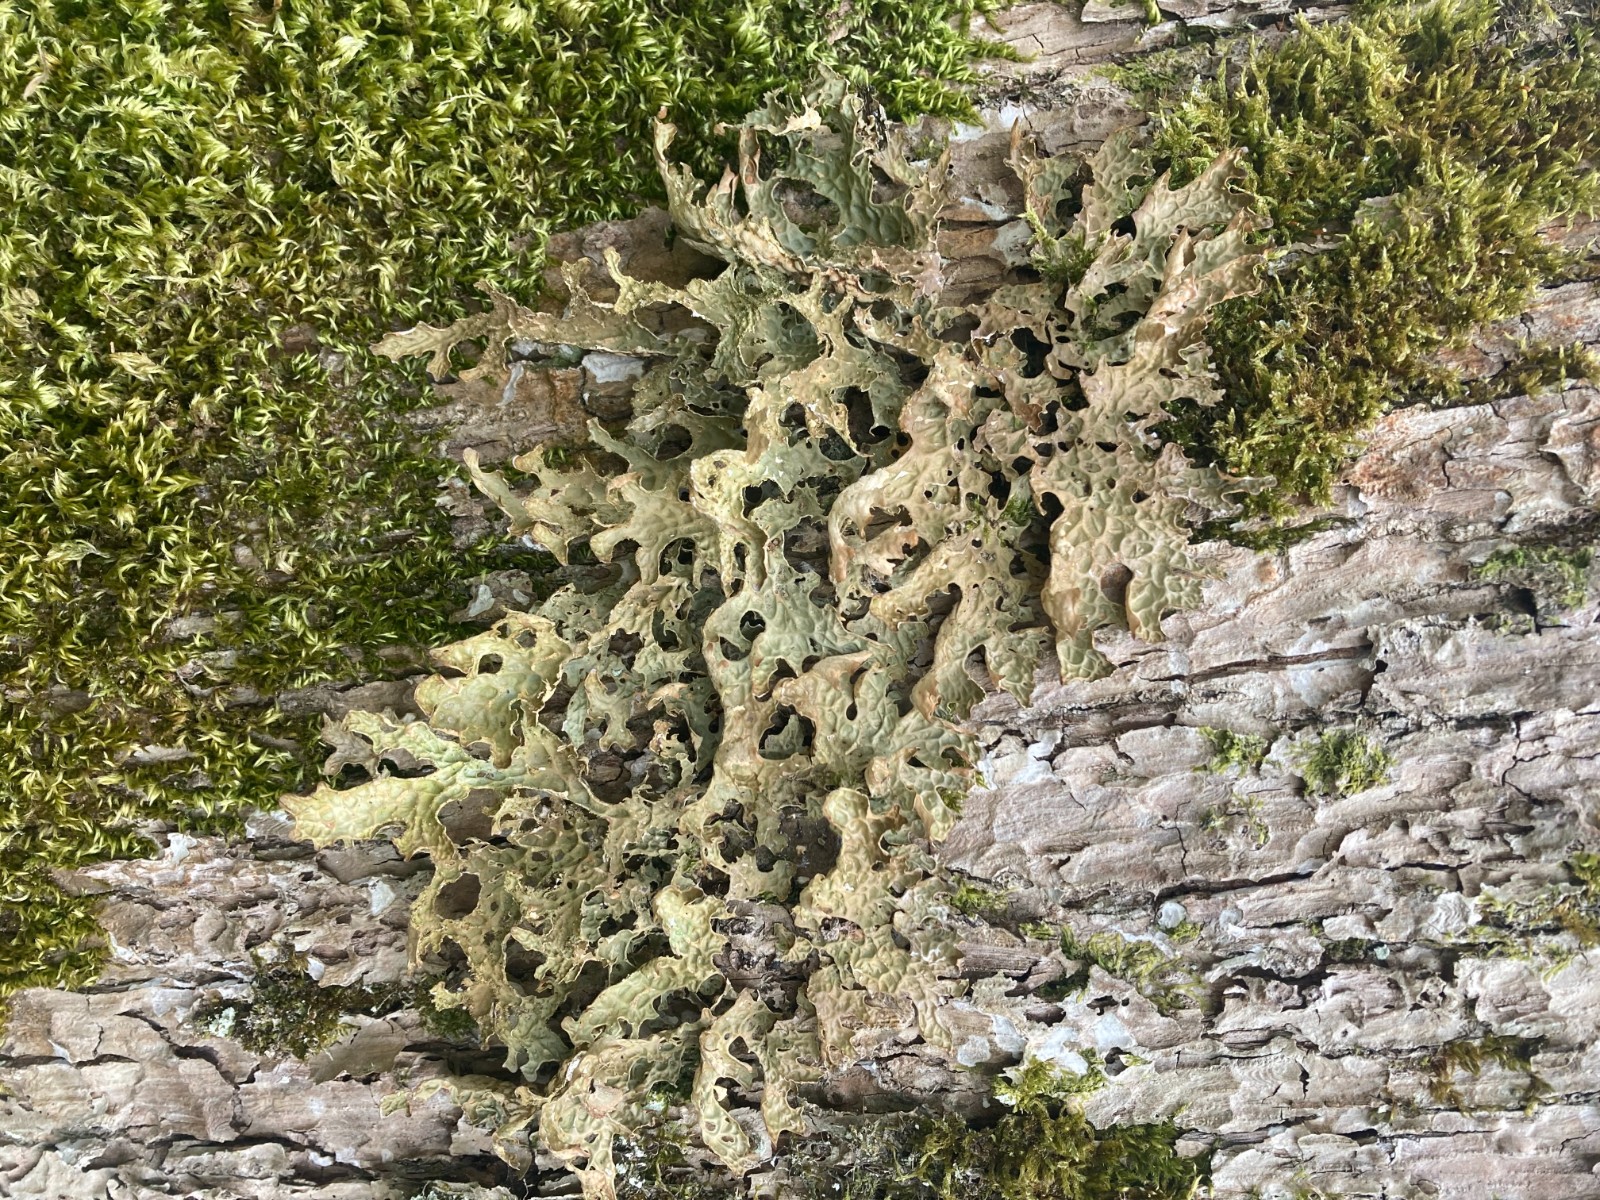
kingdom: Fungi
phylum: Ascomycota
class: Lecanoromycetes
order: Peltigerales
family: Lobariaceae
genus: Lobaria
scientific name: Lobaria pulmonaria
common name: almindelig lungelav
